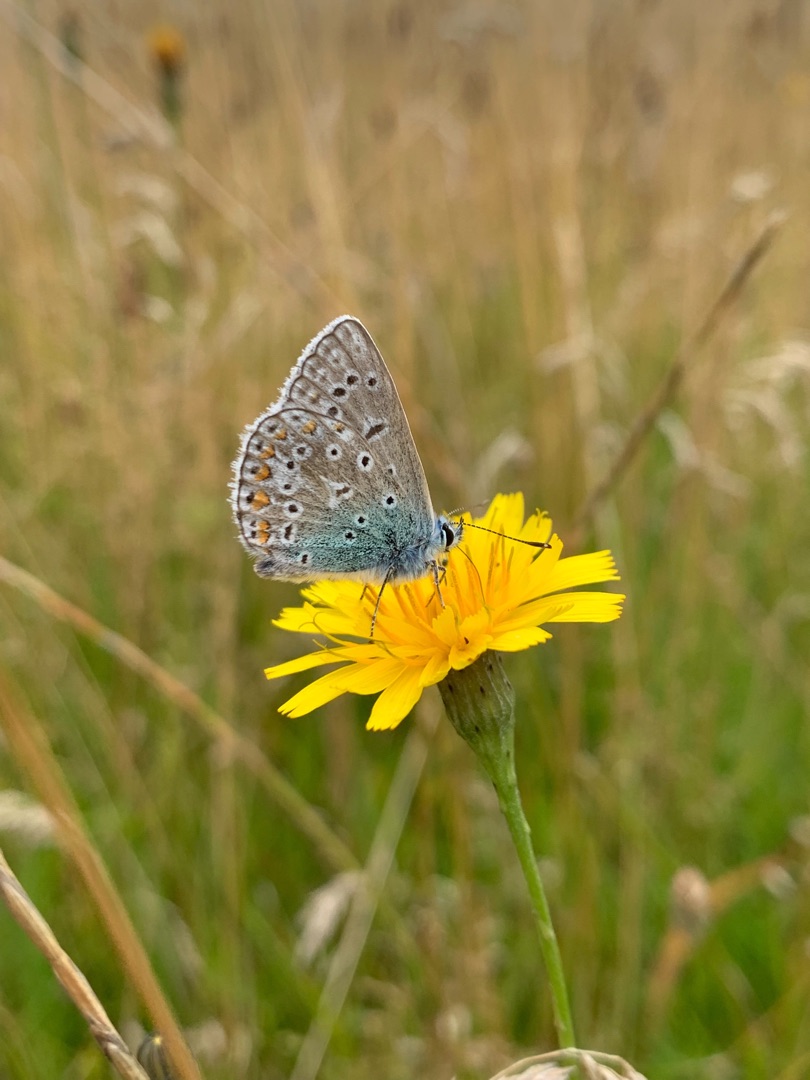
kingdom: Animalia
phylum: Arthropoda
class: Insecta
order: Lepidoptera
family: Lycaenidae
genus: Polyommatus
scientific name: Polyommatus icarus
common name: Almindelig blåfugl
